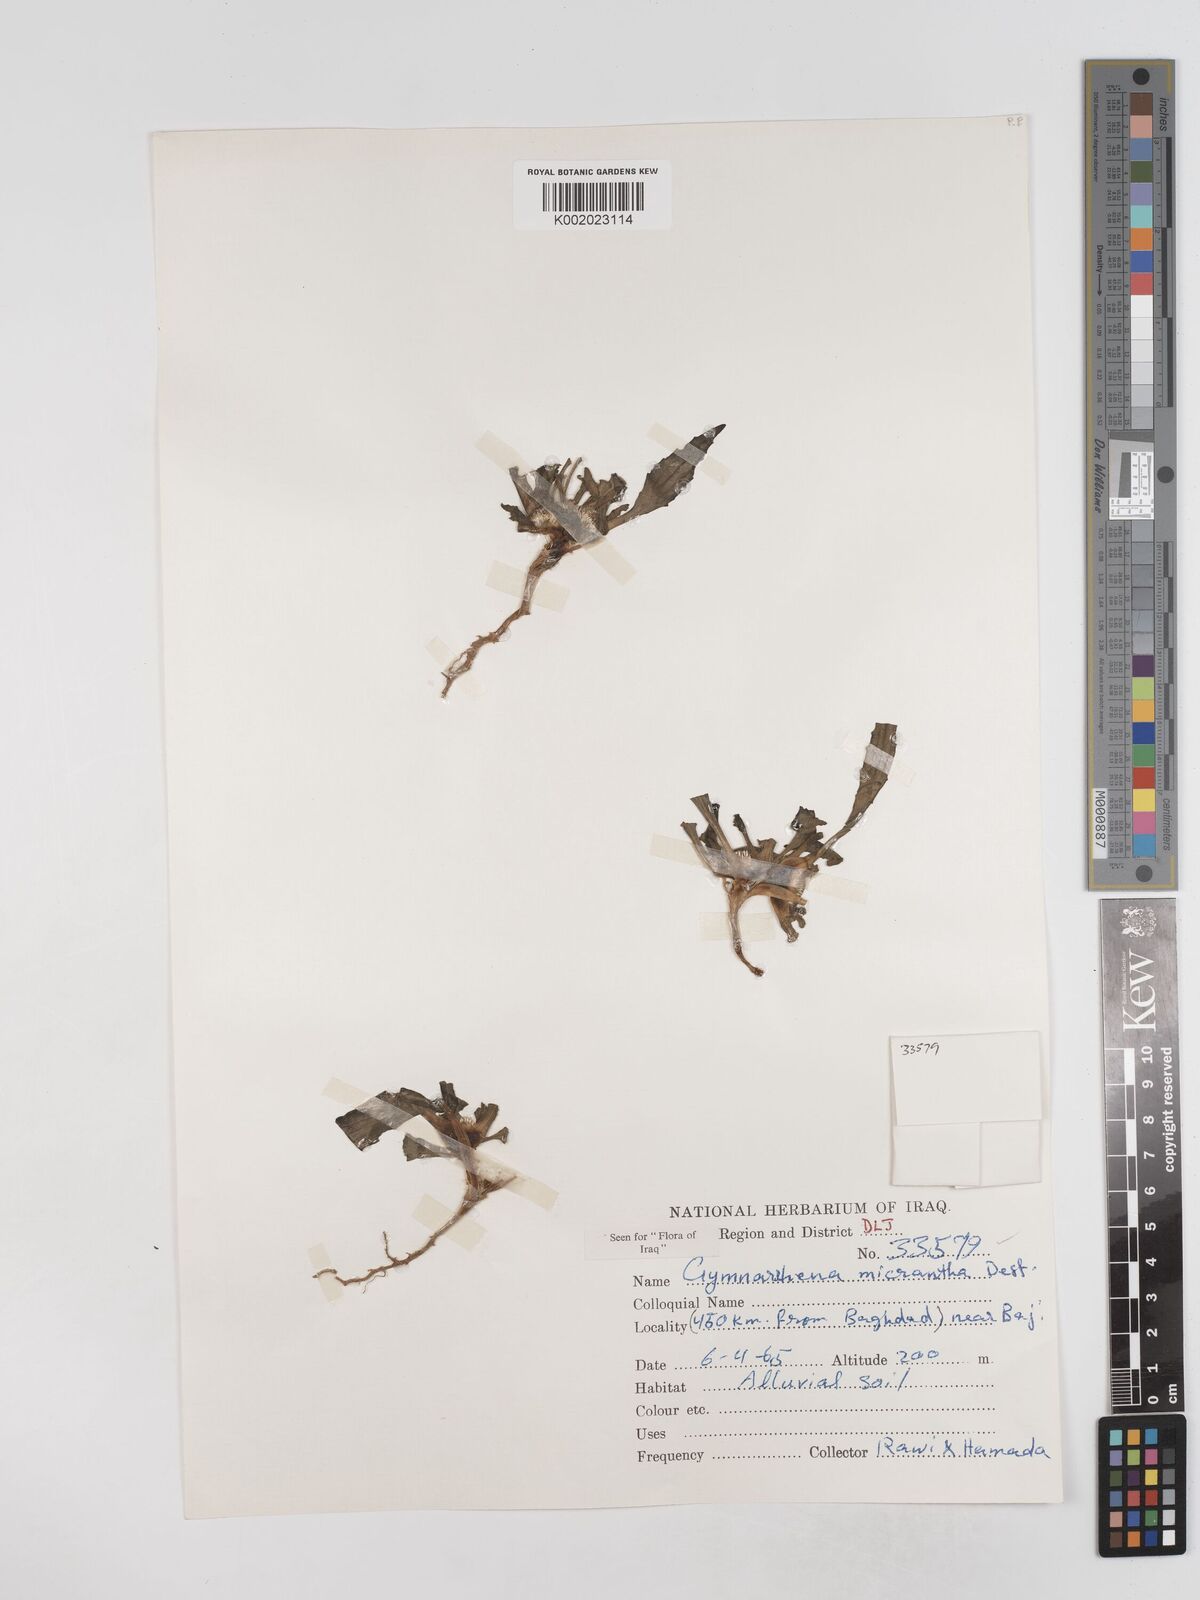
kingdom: Plantae
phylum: Tracheophyta
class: Magnoliopsida
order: Asterales
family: Asteraceae
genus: Gymnarrhena
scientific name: Gymnarrhena micrantha
